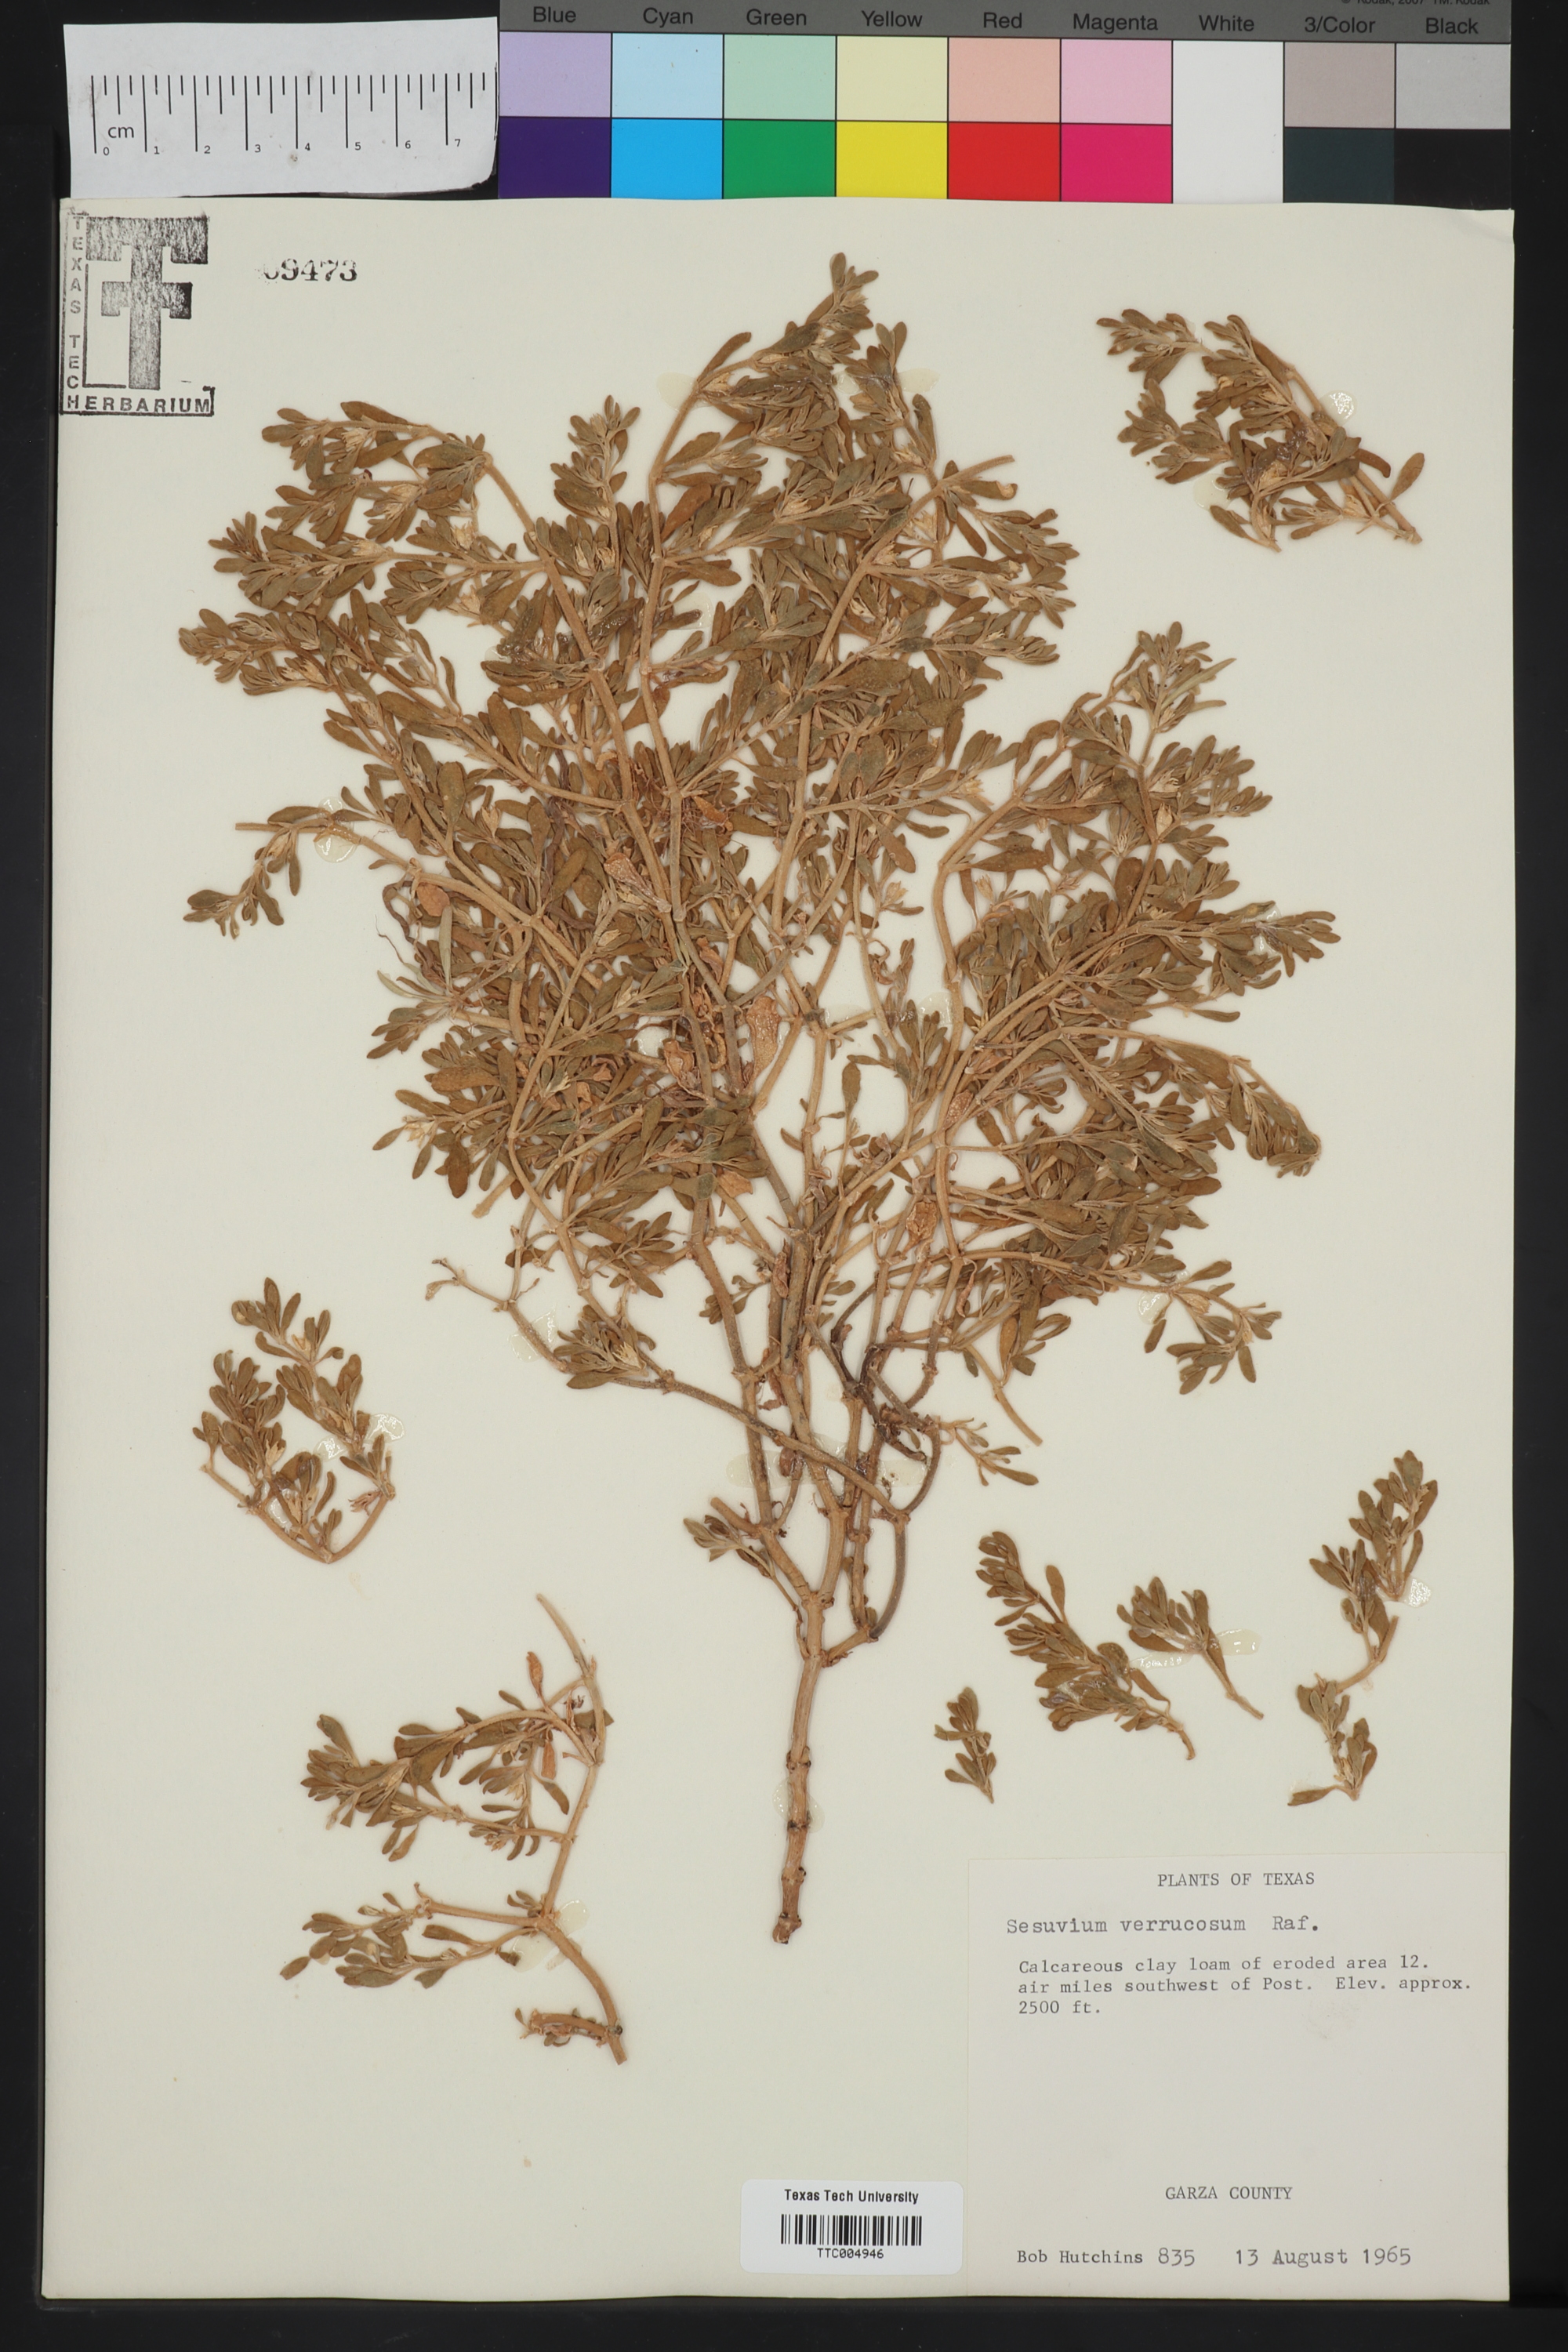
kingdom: Plantae
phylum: Tracheophyta
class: Magnoliopsida
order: Caryophyllales
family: Aizoaceae
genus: Sesuvium
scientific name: Sesuvium revolutifolium
